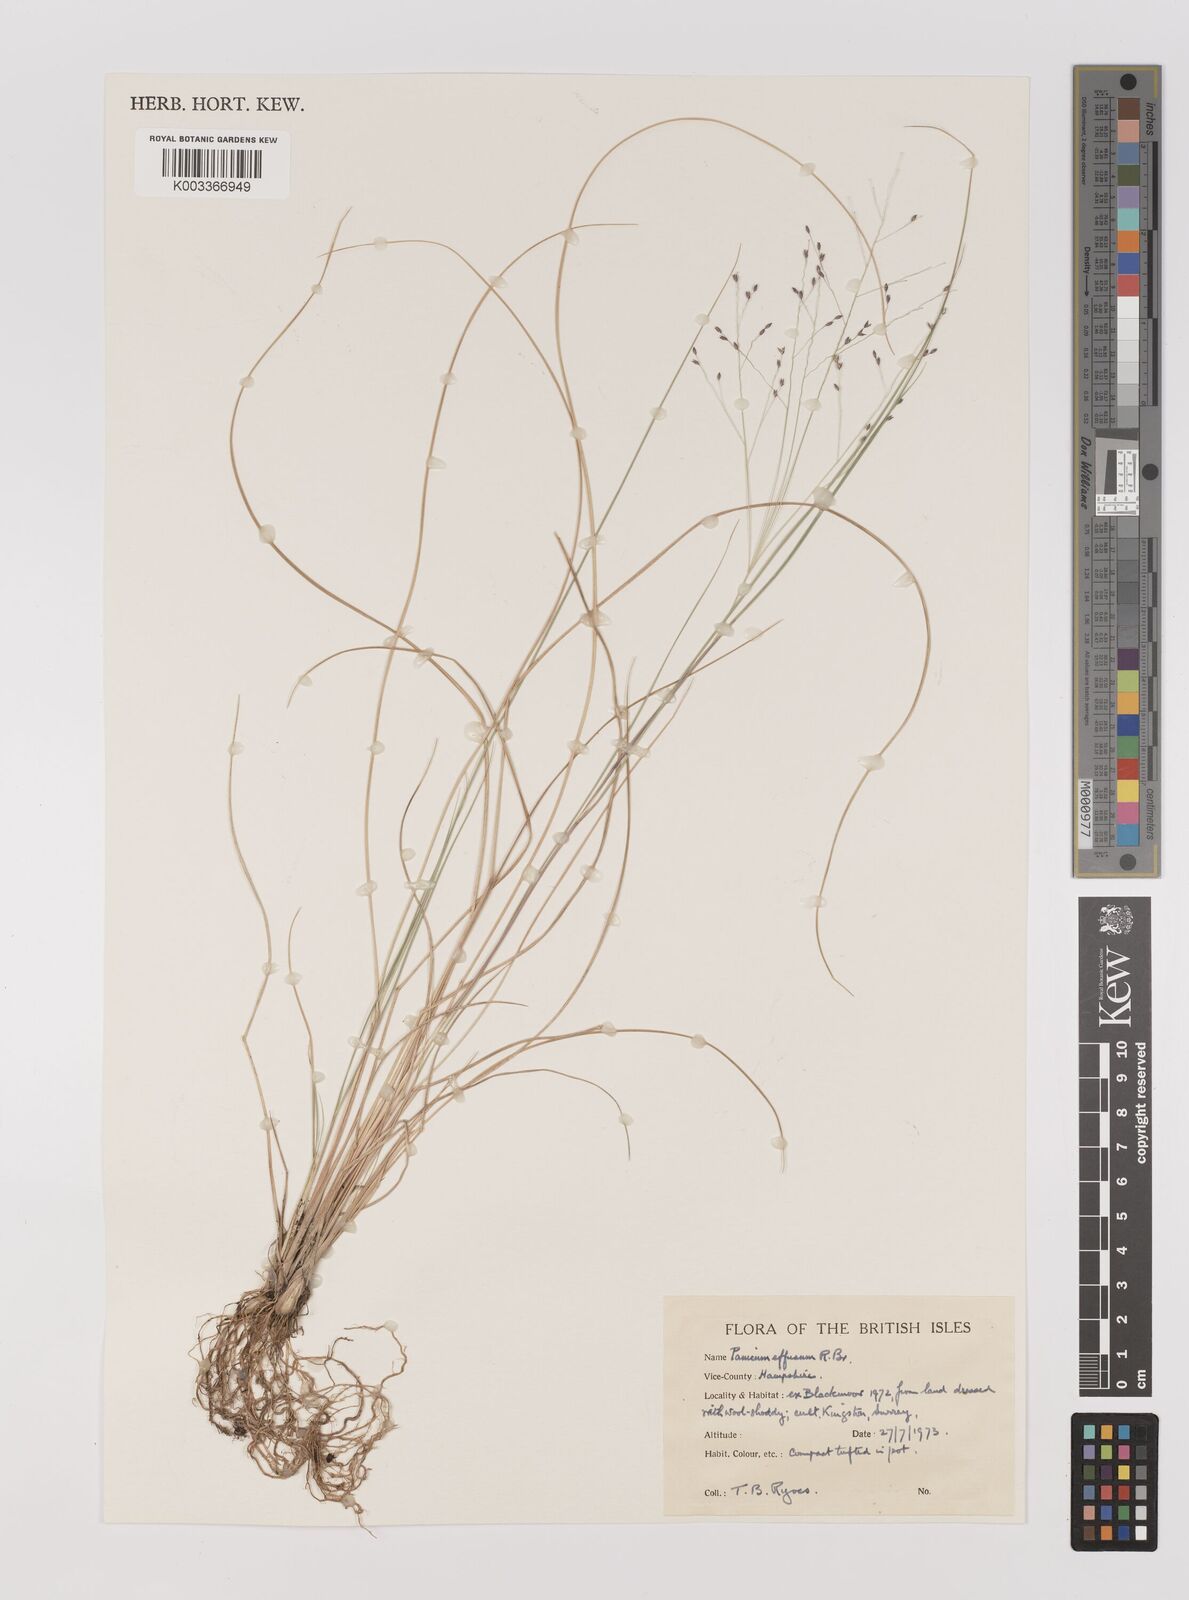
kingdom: Plantae
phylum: Tracheophyta
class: Liliopsida
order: Poales
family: Poaceae
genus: Panicum
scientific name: Panicum effusum
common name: Hairy panic grass
